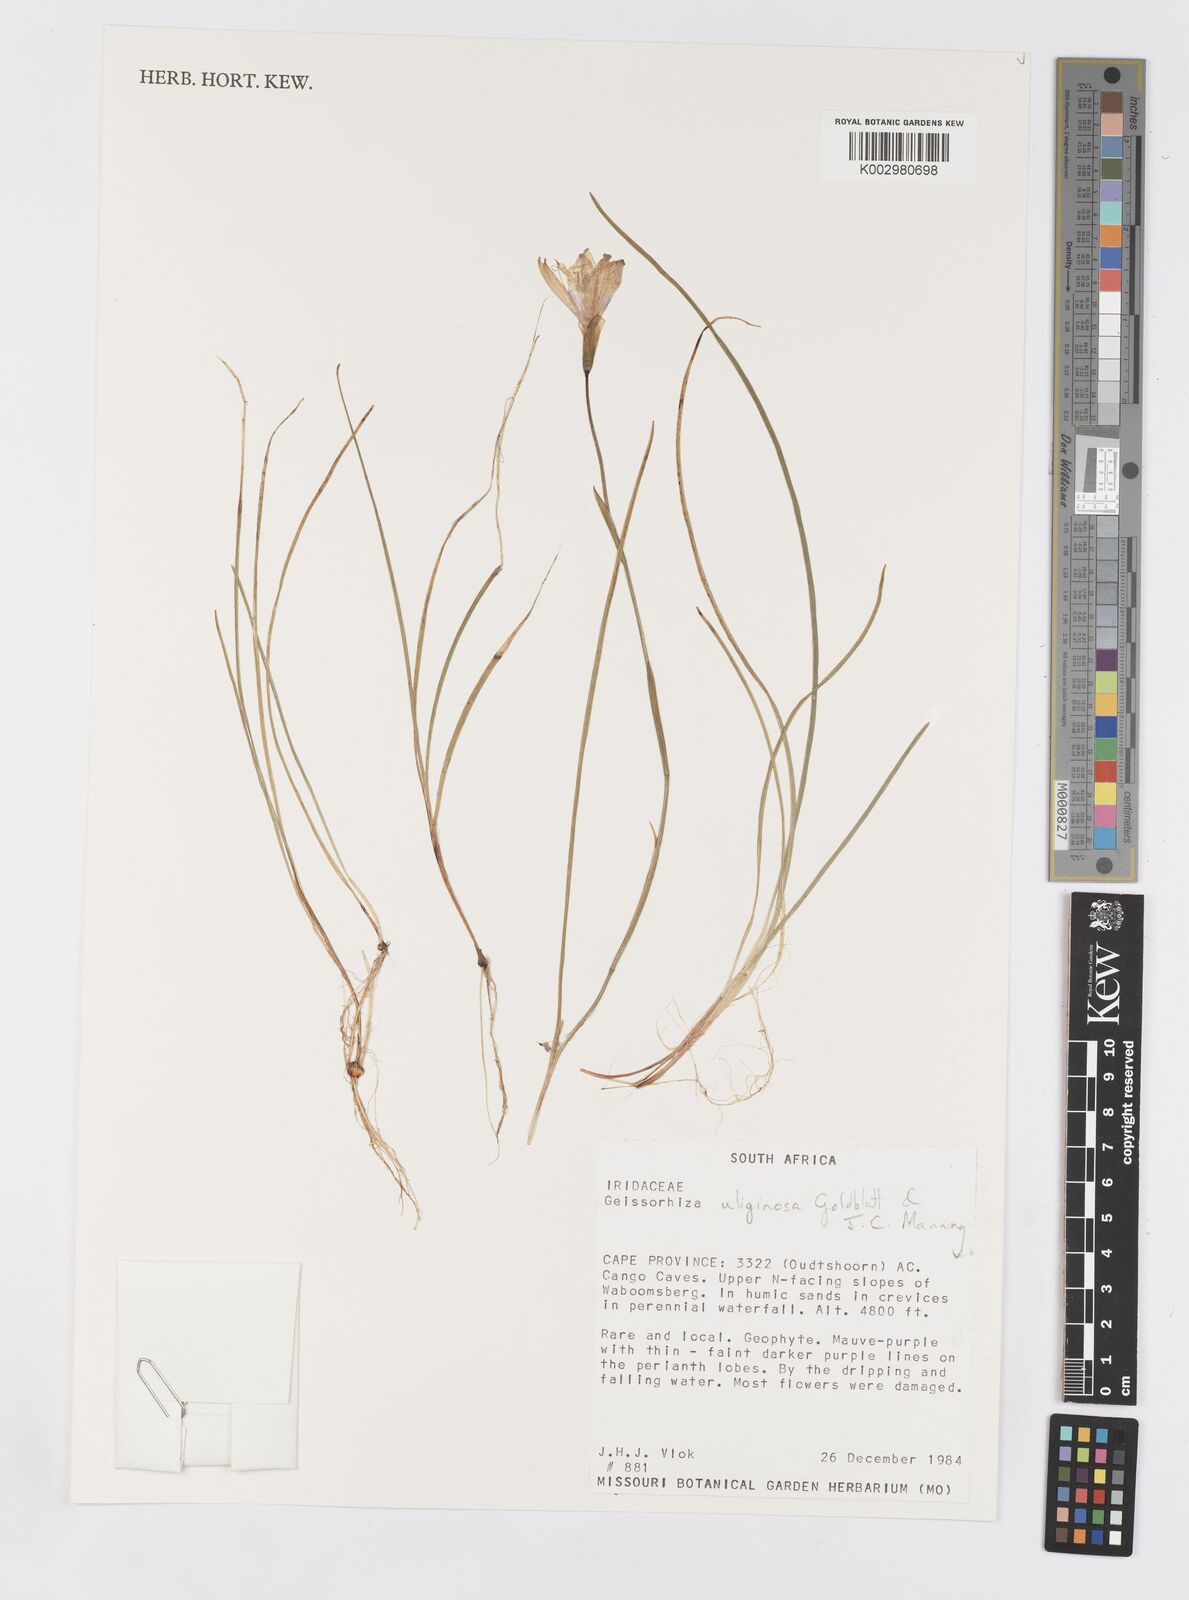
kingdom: Plantae
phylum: Tracheophyta
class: Liliopsida
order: Asparagales
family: Iridaceae
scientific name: Iridaceae
